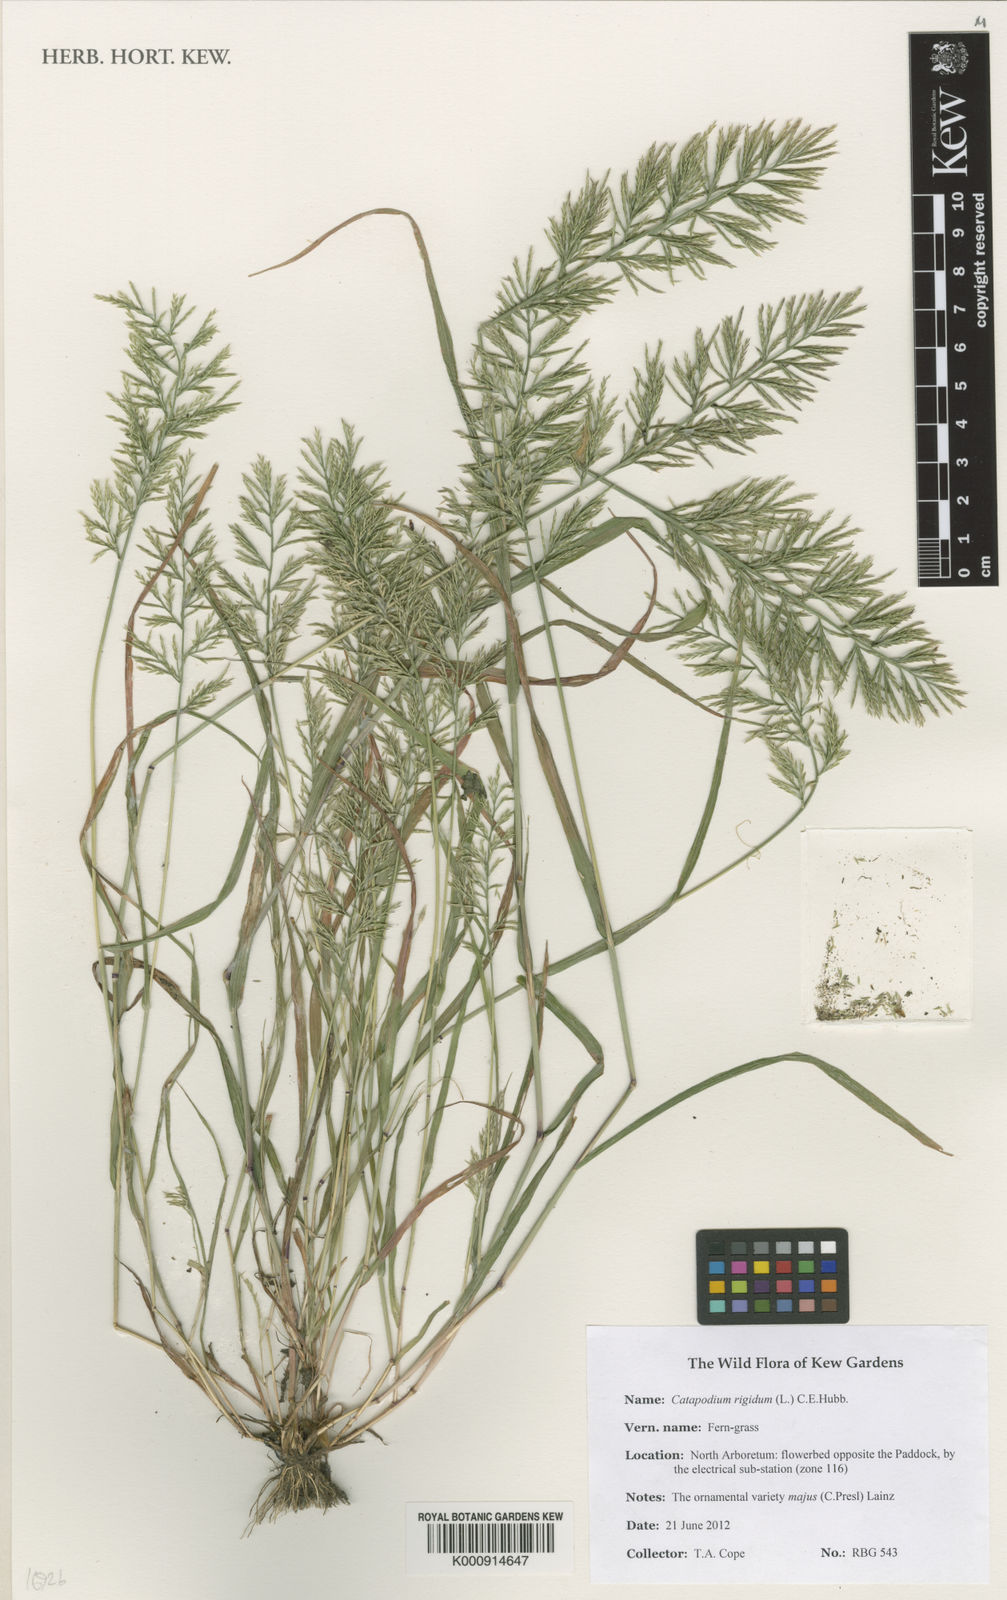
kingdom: Plantae
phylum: Tracheophyta
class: Liliopsida
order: Poales
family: Poaceae
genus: Catapodium
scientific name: Catapodium rigidum
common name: Fern-grass
